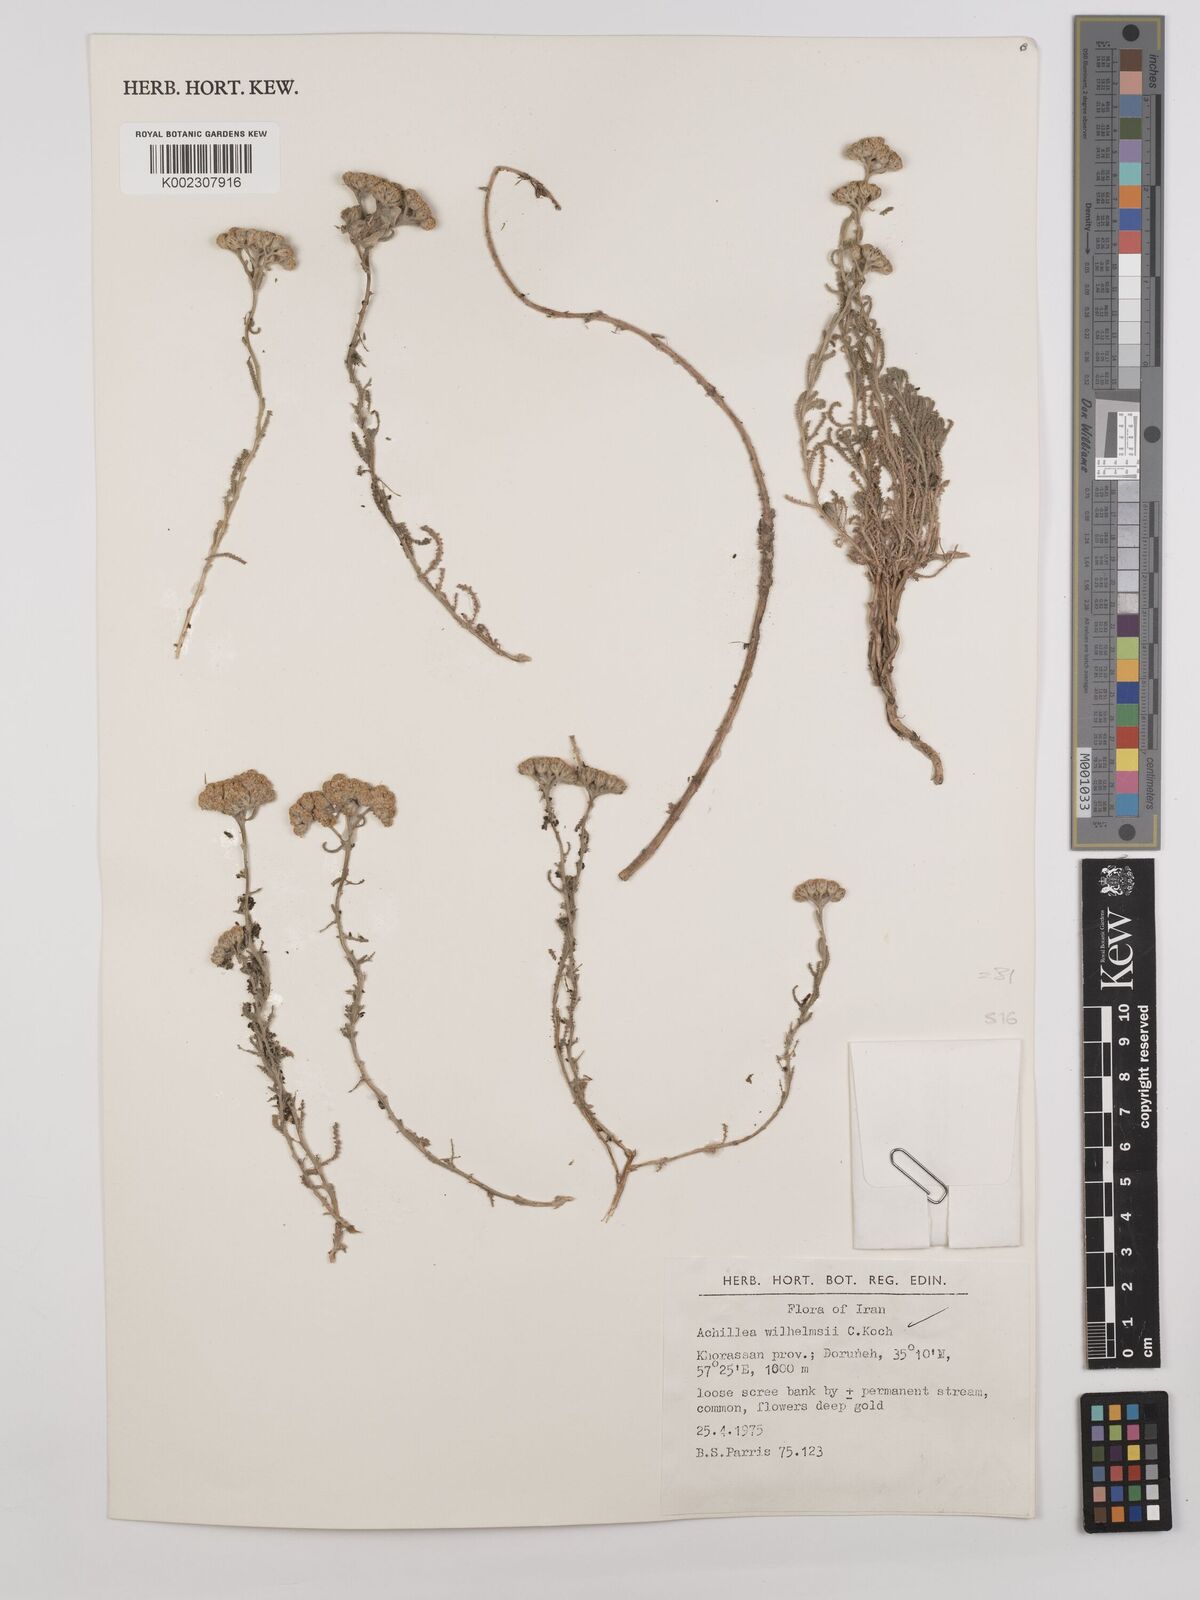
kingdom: Plantae
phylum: Tracheophyta
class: Magnoliopsida
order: Asterales
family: Asteraceae
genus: Achillea
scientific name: Achillea wilhelmsii
